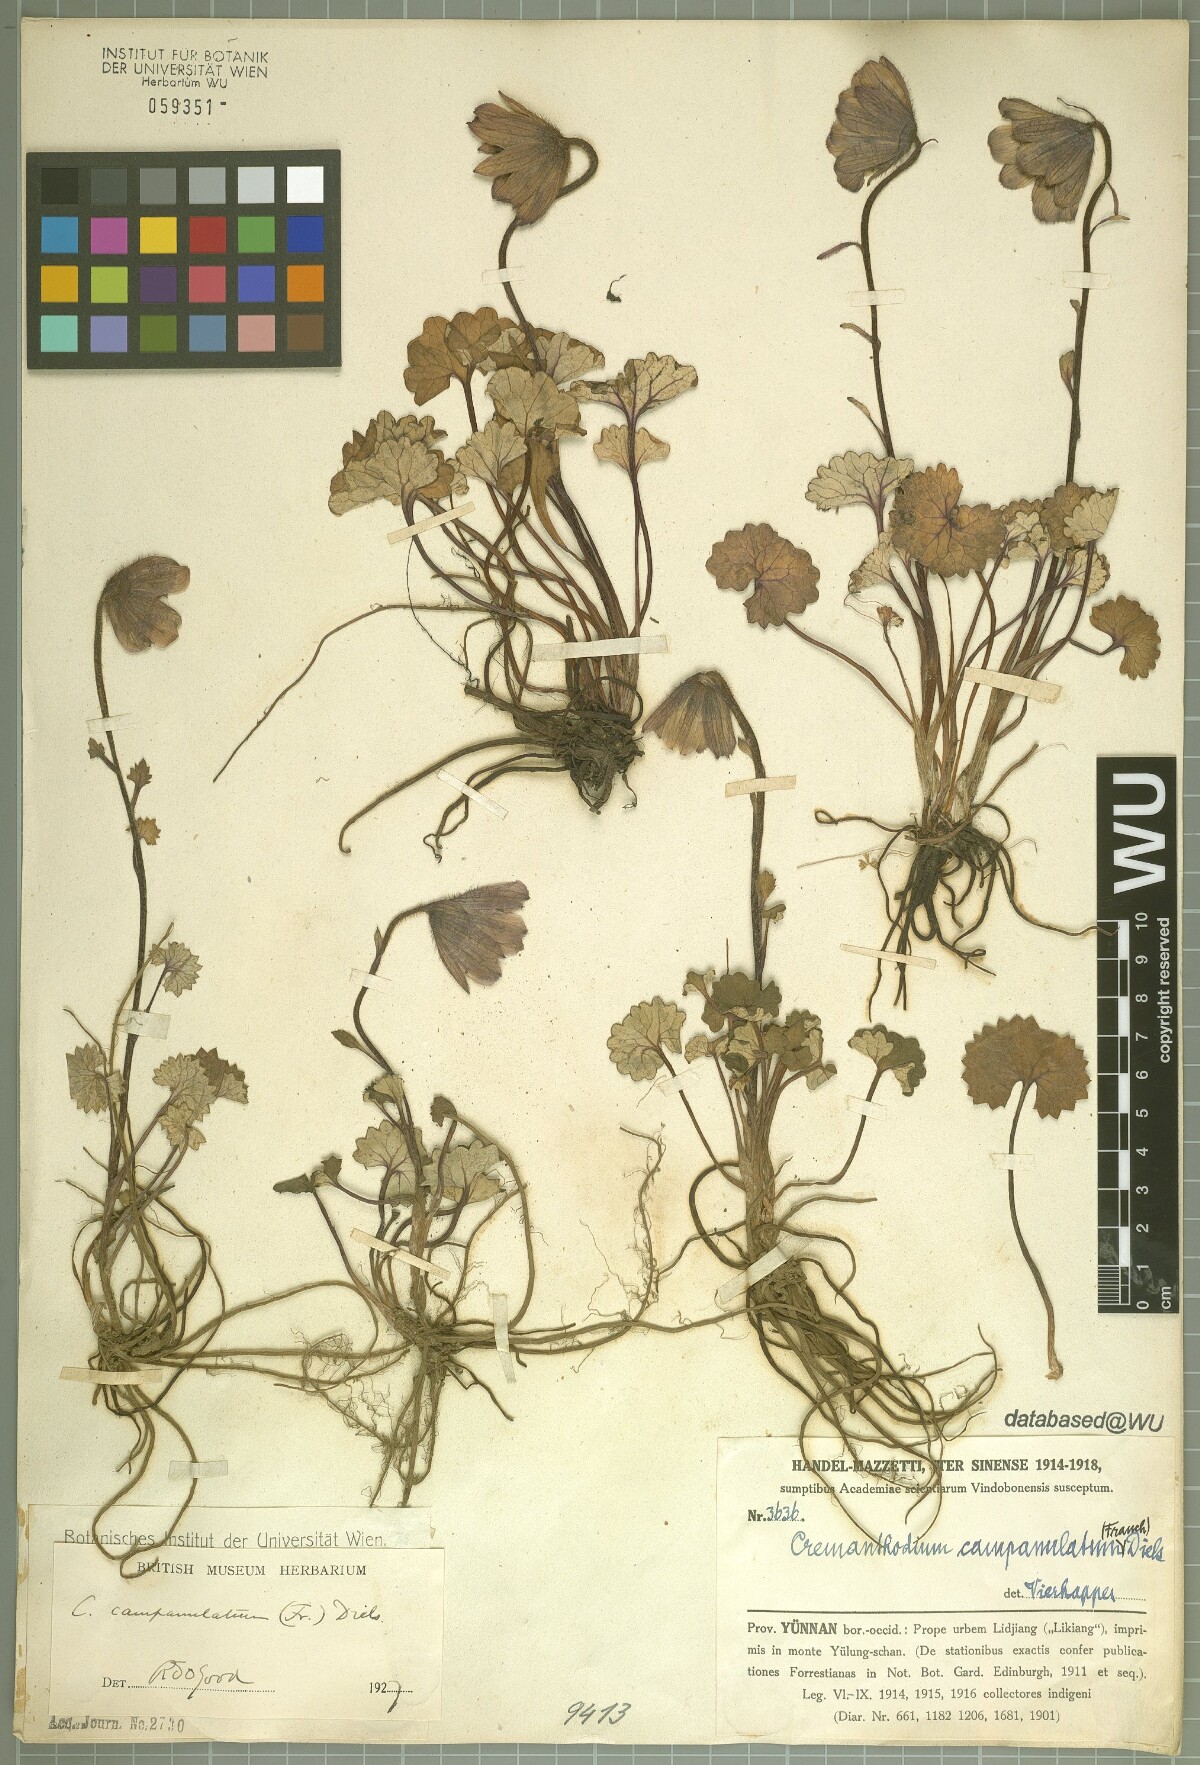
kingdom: Plantae
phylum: Tracheophyta
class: Magnoliopsida
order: Asterales
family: Asteraceae
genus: Cremanthodium
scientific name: Cremanthodium campanulatum
